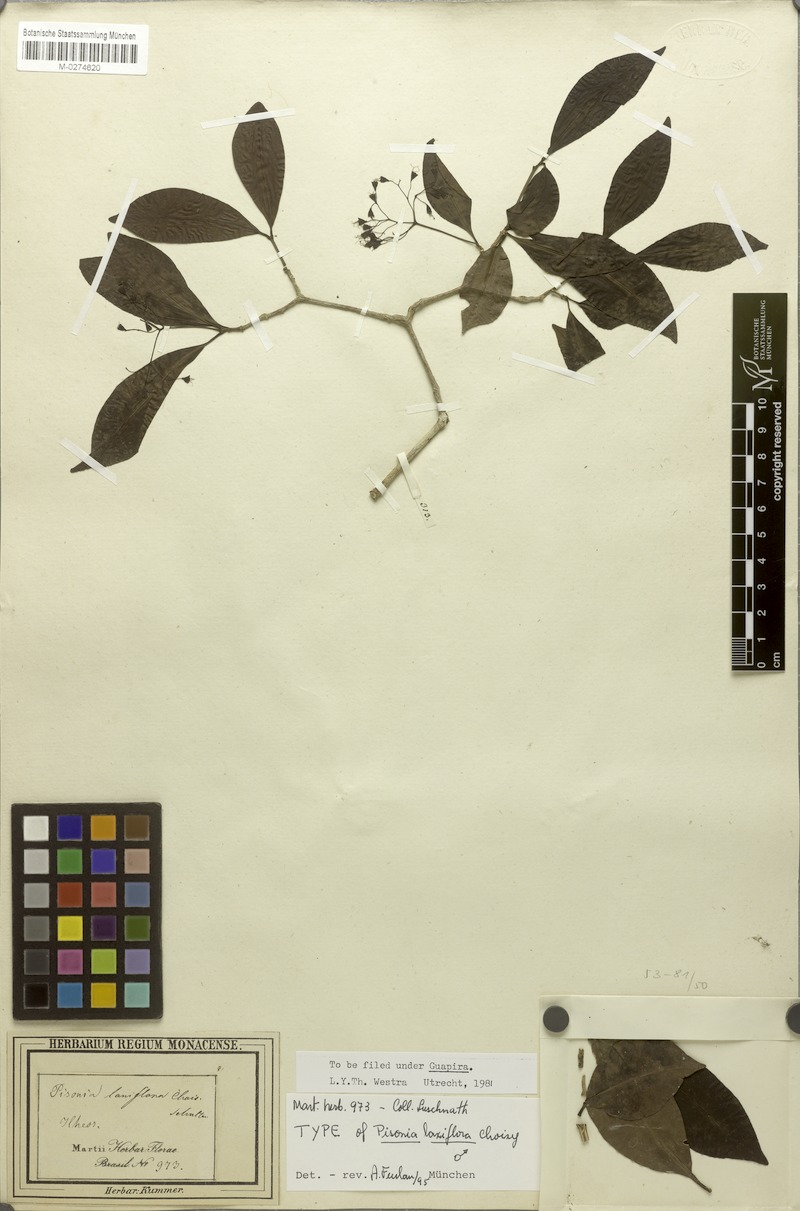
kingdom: Plantae
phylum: Tracheophyta
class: Magnoliopsida
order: Caryophyllales
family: Nyctaginaceae
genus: Guapira
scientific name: Guapira laxiflora
